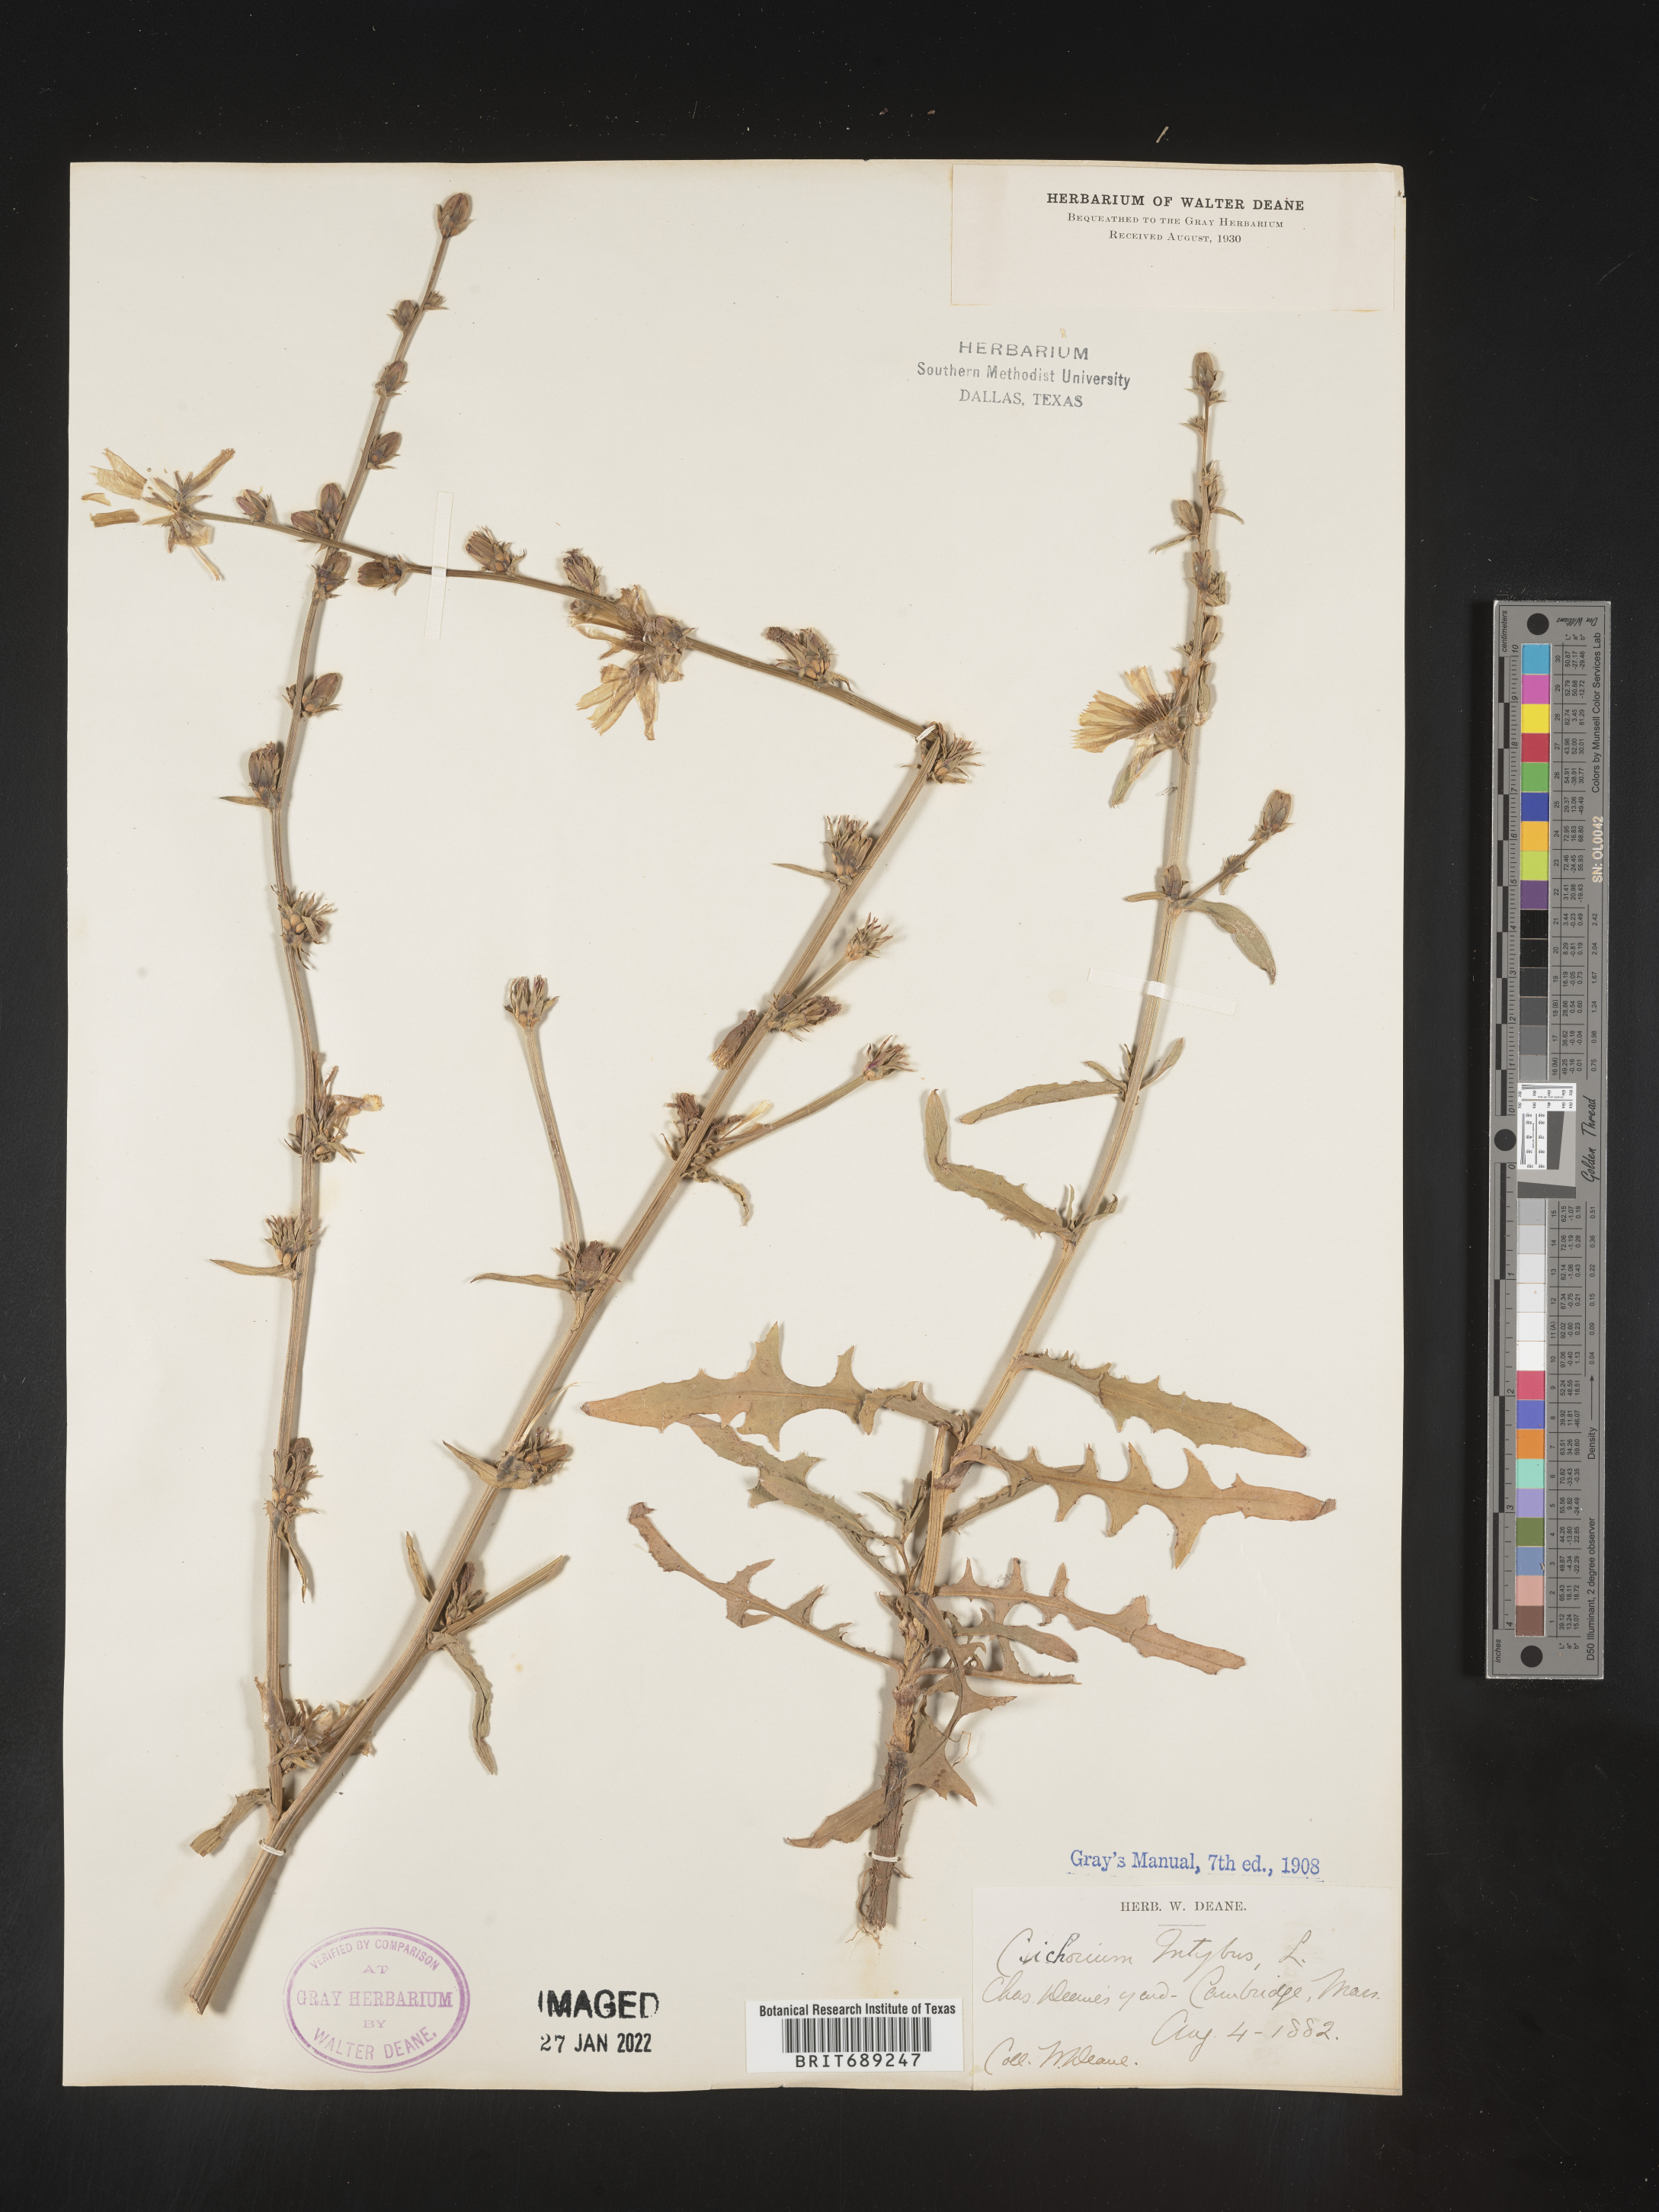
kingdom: Plantae
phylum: Tracheophyta
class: Magnoliopsida
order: Asterales
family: Asteraceae
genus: Cichorium
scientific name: Cichorium intybus
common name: Chicory
